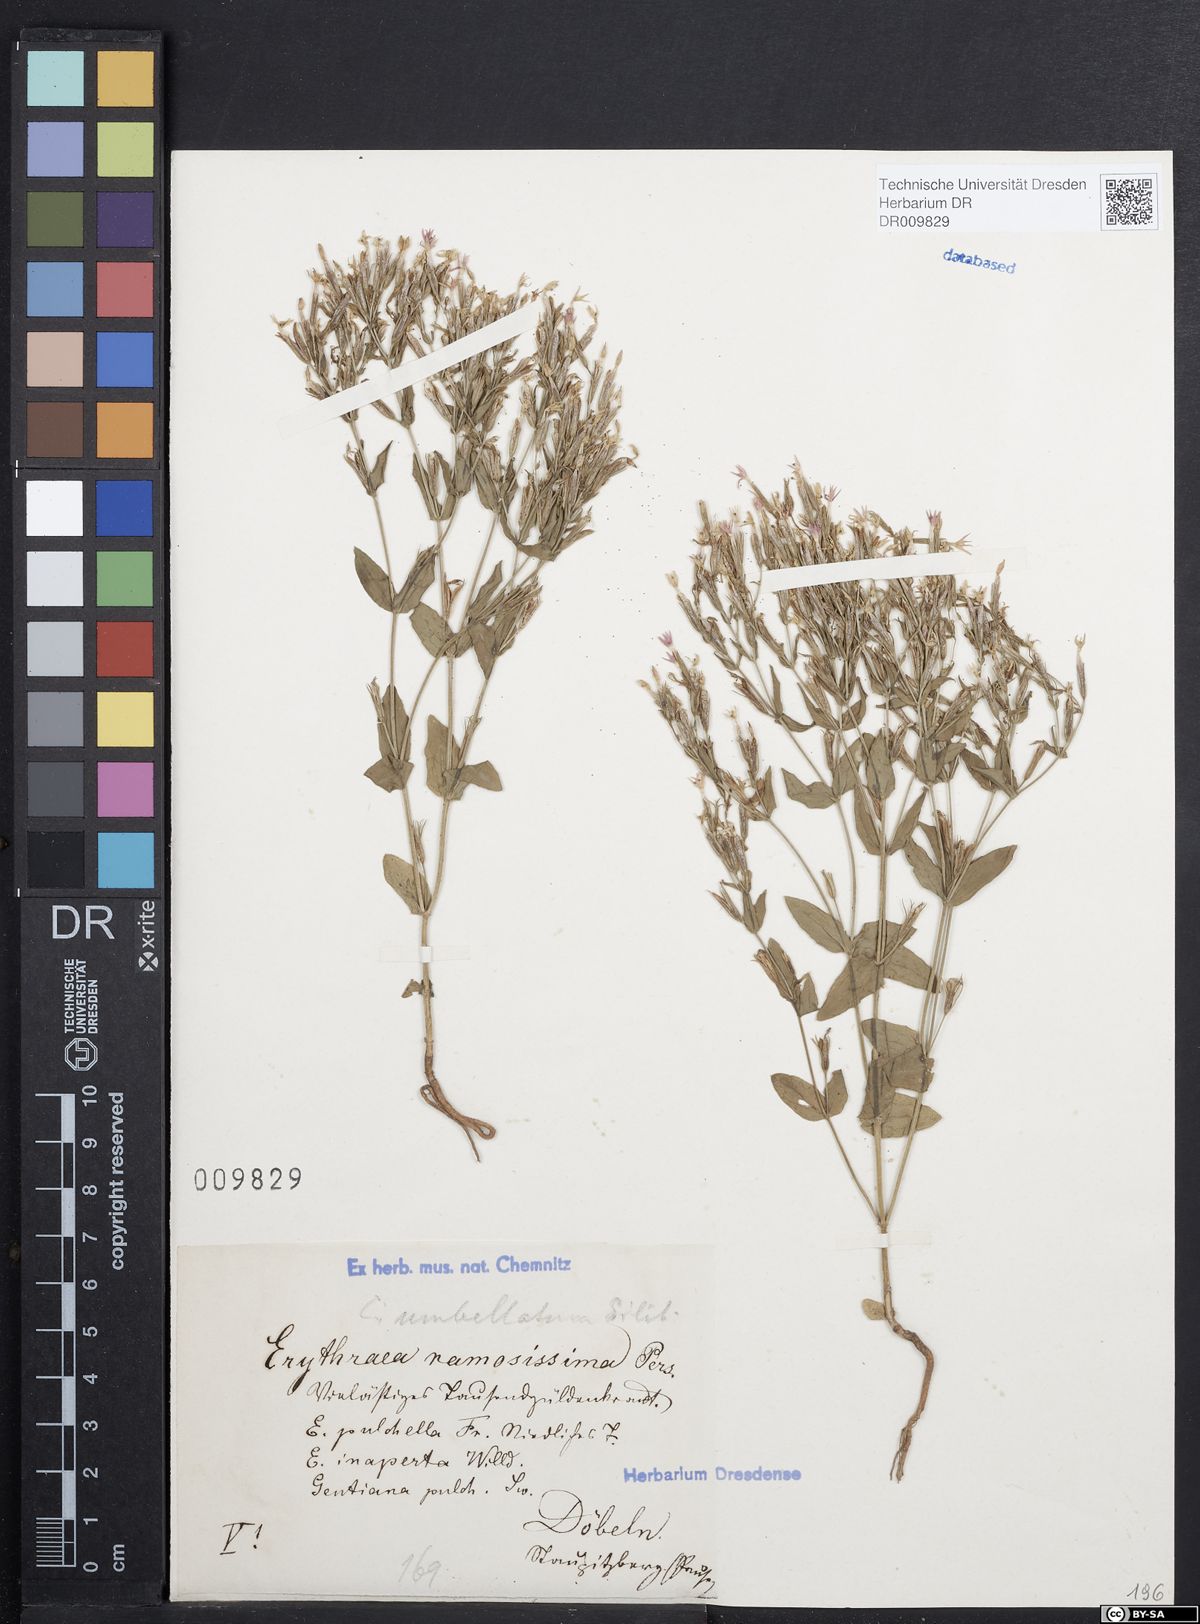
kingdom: Plantae
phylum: Tracheophyta
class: Magnoliopsida
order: Gentianales
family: Gentianaceae
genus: Centaurium
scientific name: Centaurium pulchellum
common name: Lesser centaury
